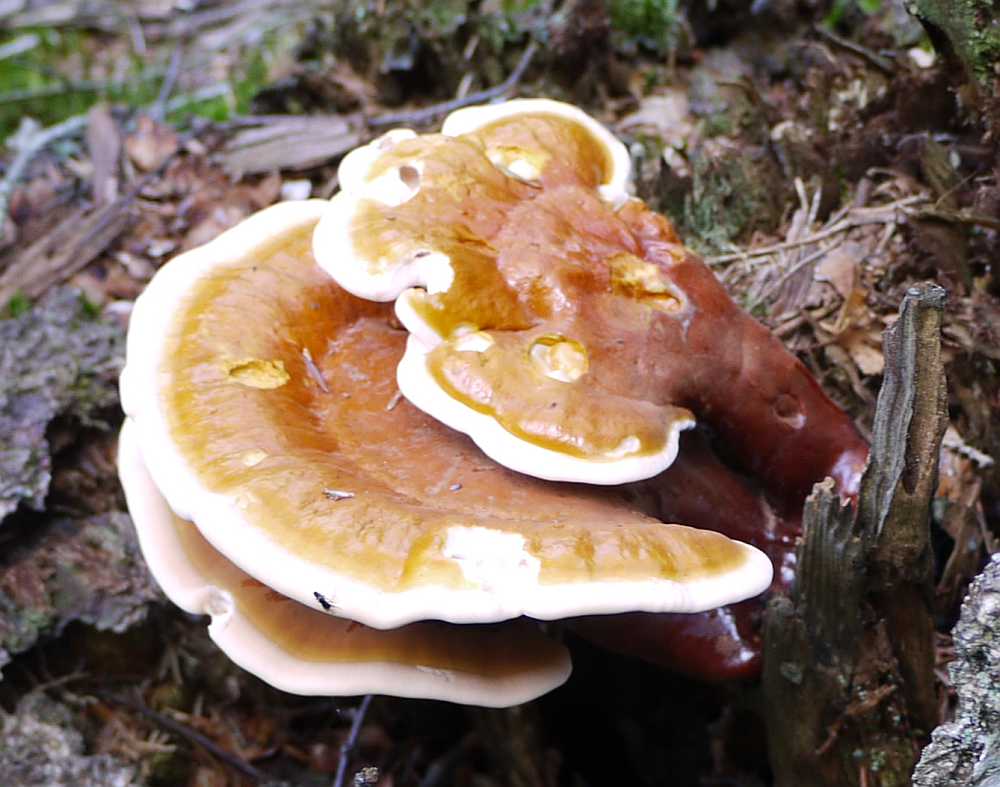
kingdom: Fungi
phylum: Basidiomycota
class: Agaricomycetes
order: Polyporales
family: Polyporaceae
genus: Ganoderma
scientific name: Ganoderma lucidum
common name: skinnende lakporesvamp
